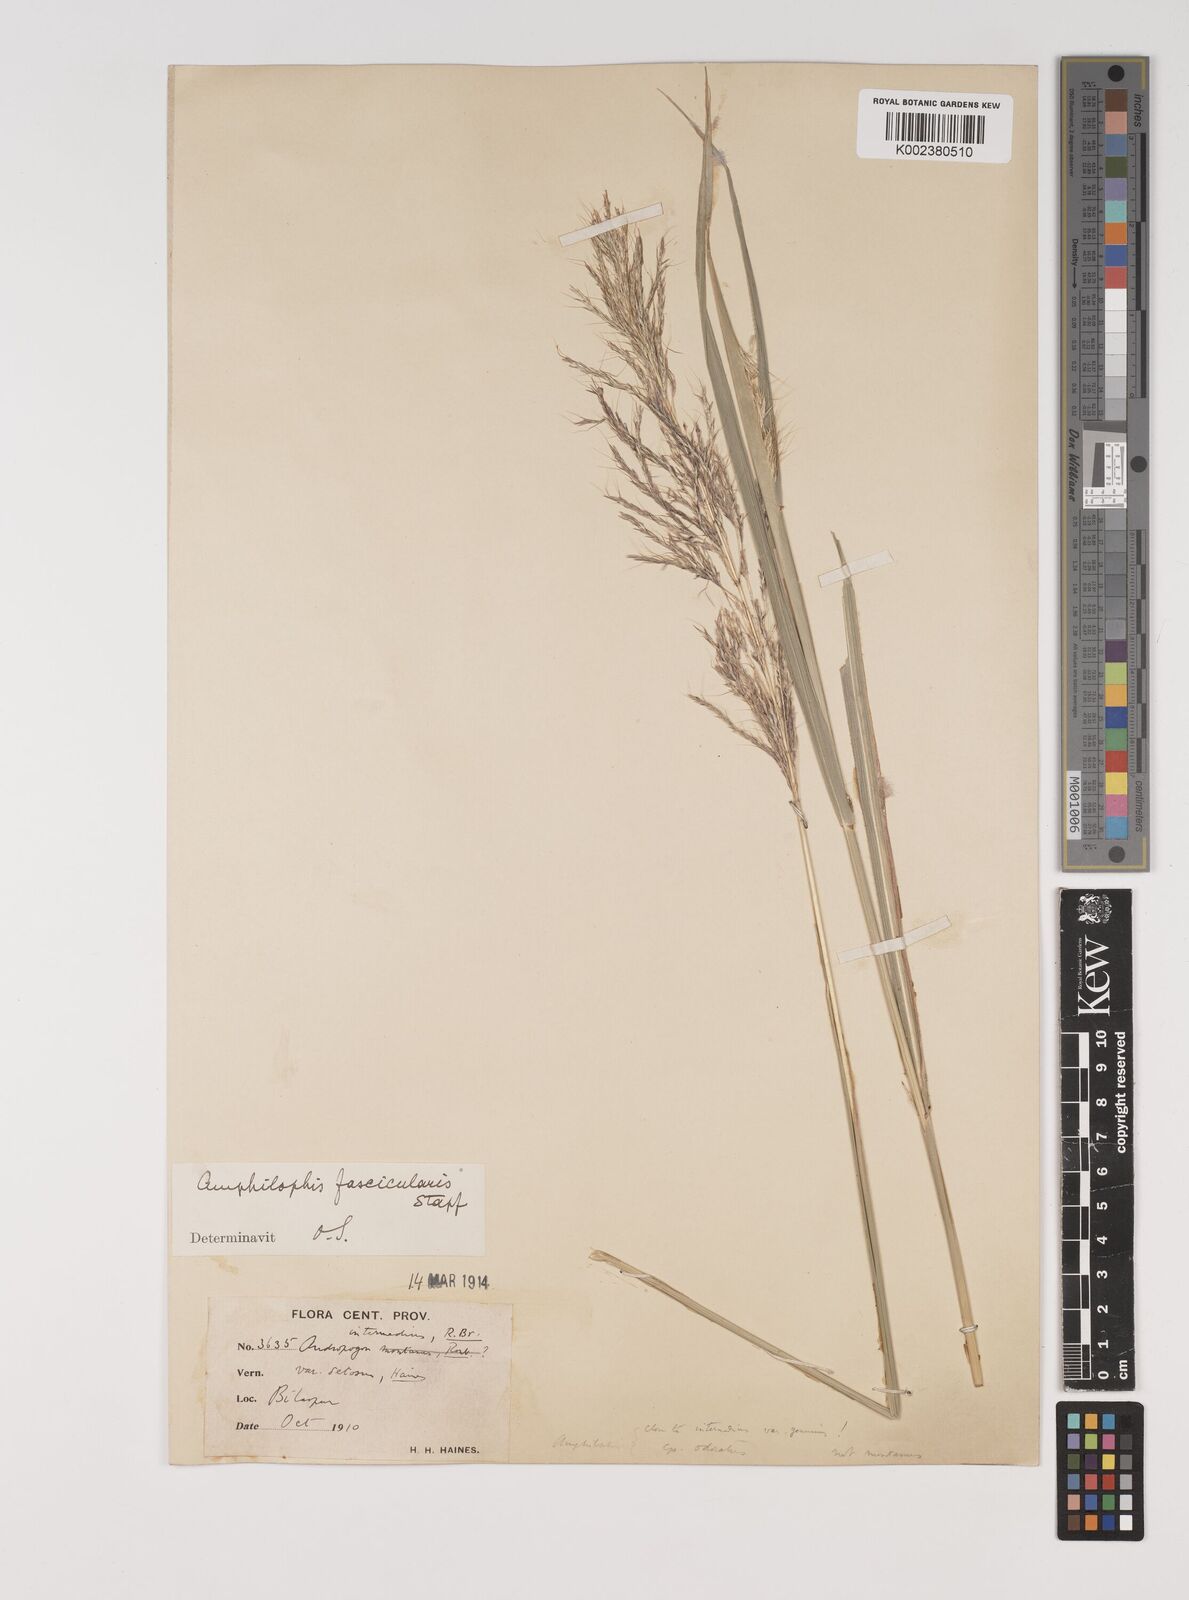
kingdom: Plantae
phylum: Tracheophyta
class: Liliopsida
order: Poales
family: Poaceae
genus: Bothriochloa
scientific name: Bothriochloa bladhii
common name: Caucasian bluestem
